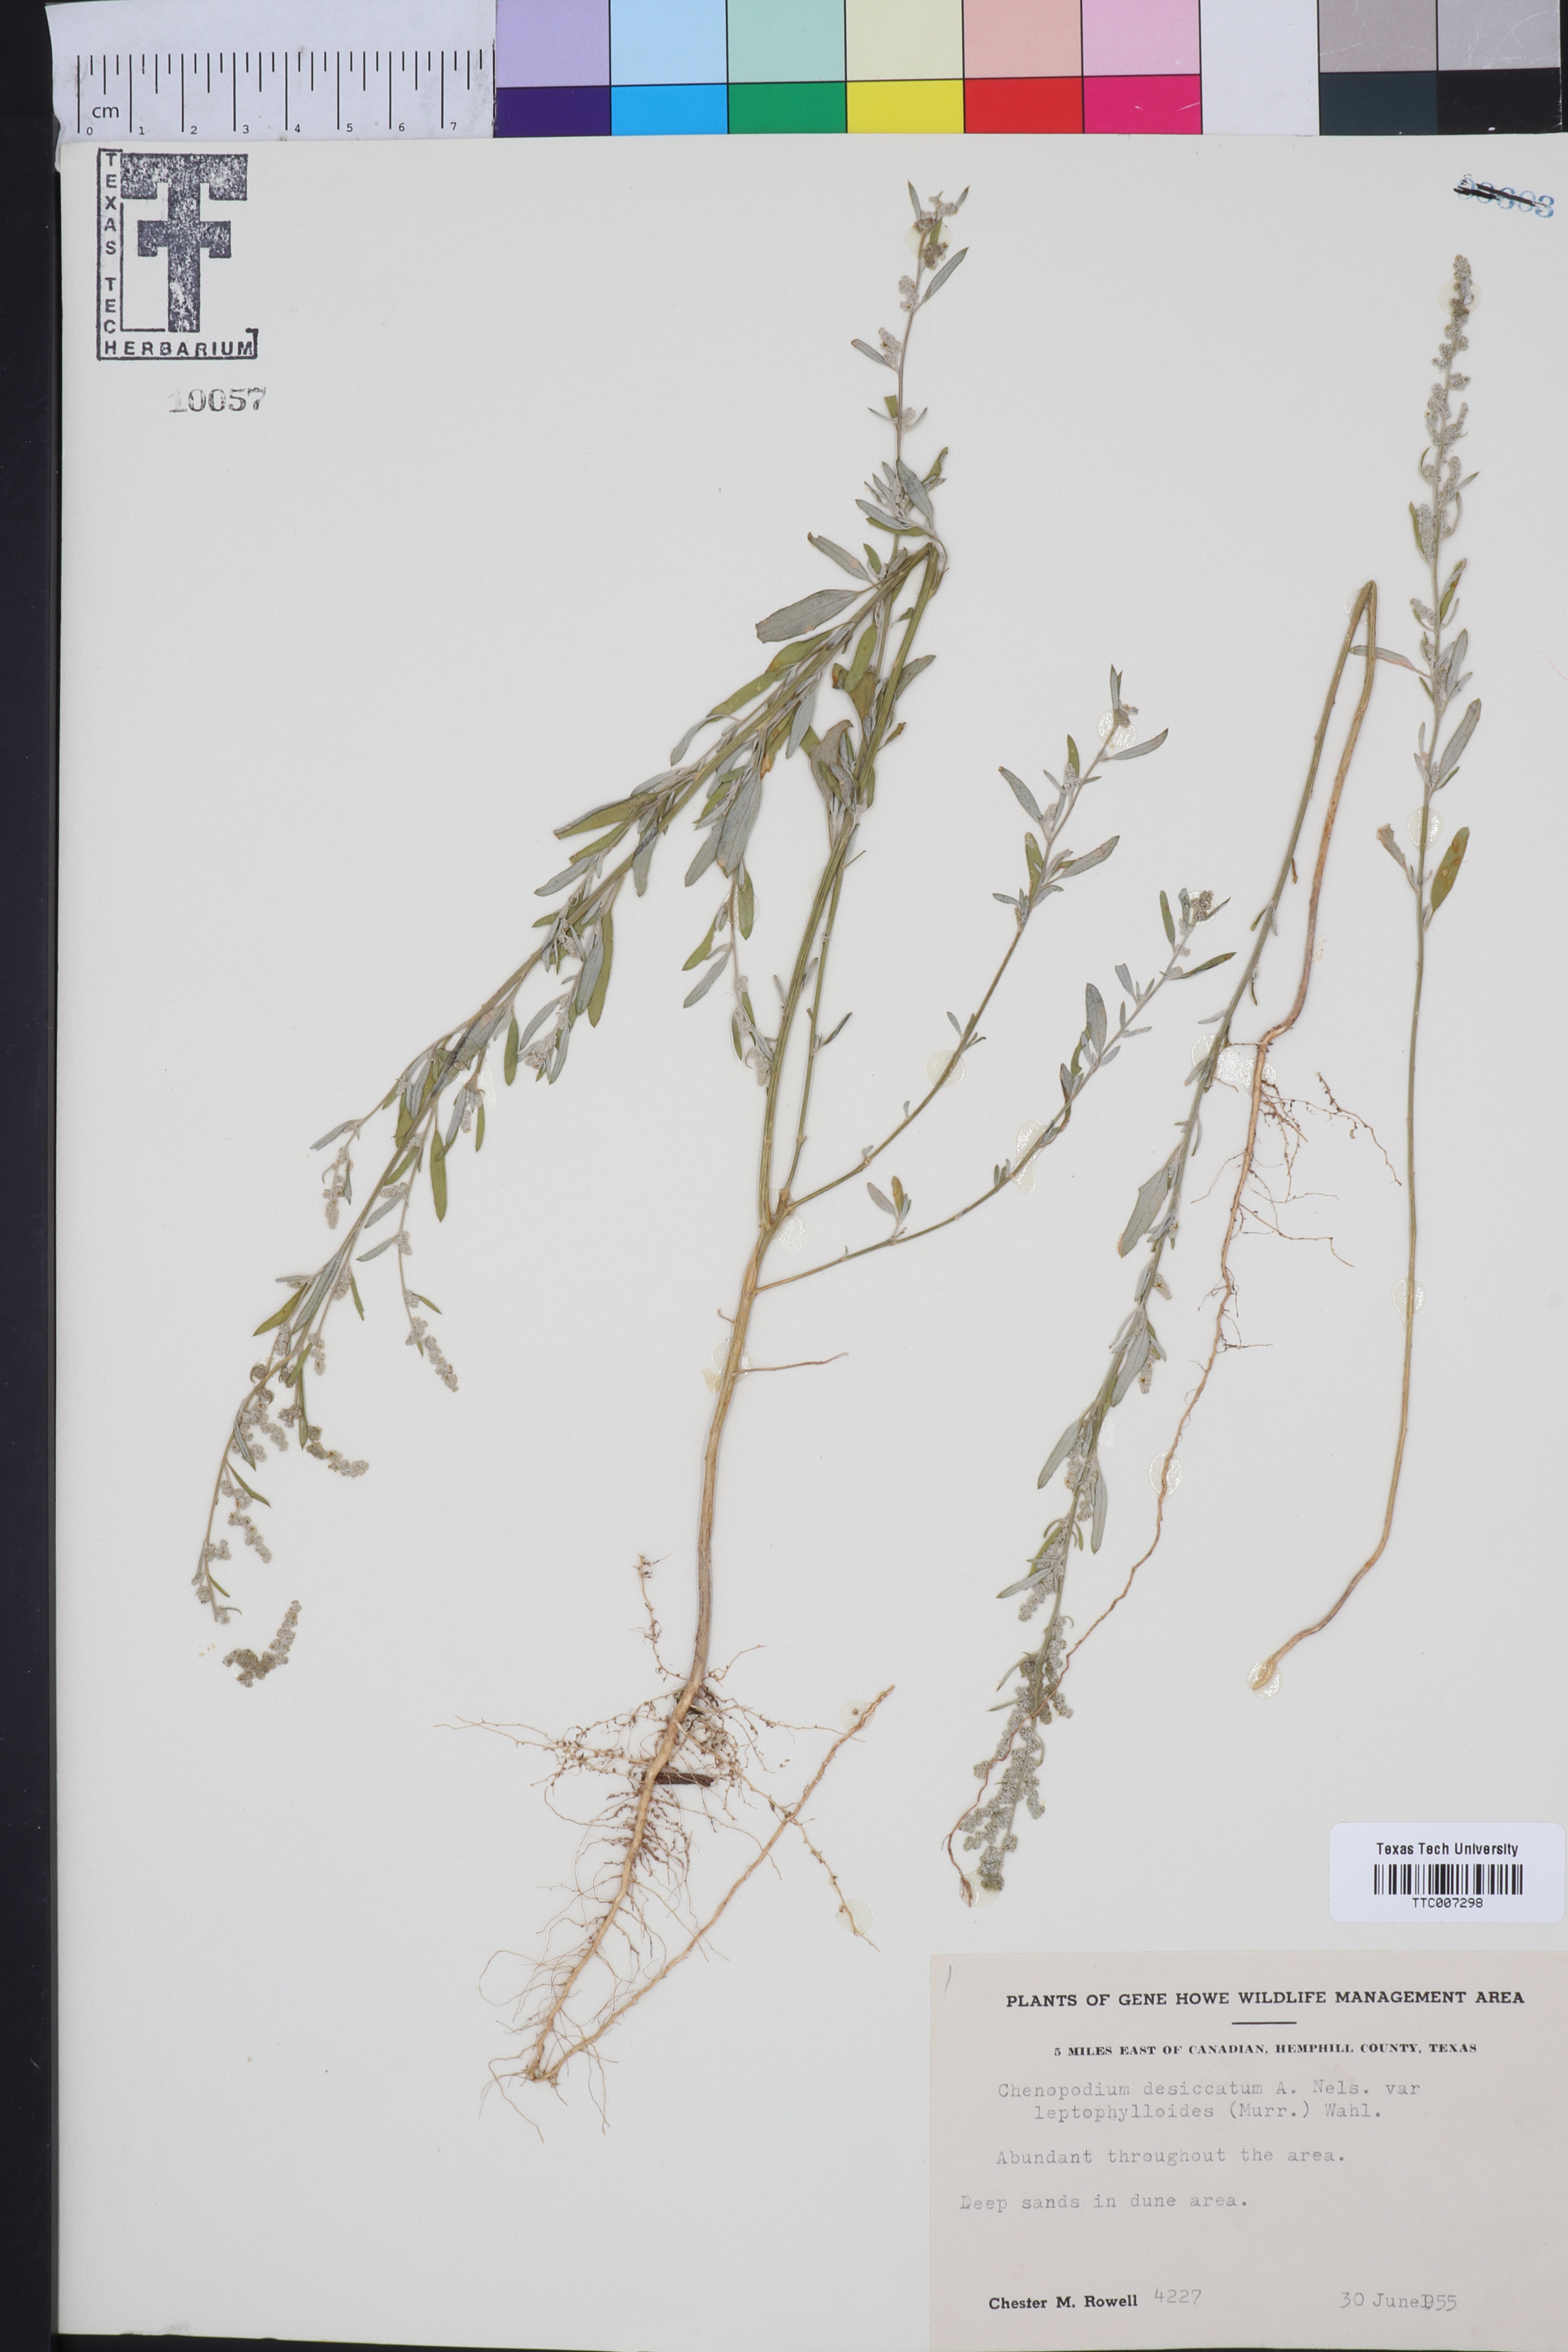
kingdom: Plantae
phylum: Tracheophyta
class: Magnoliopsida
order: Caryophyllales
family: Amaranthaceae
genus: Chenopodium
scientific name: Chenopodium pratericola
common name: Desert goosefoot
